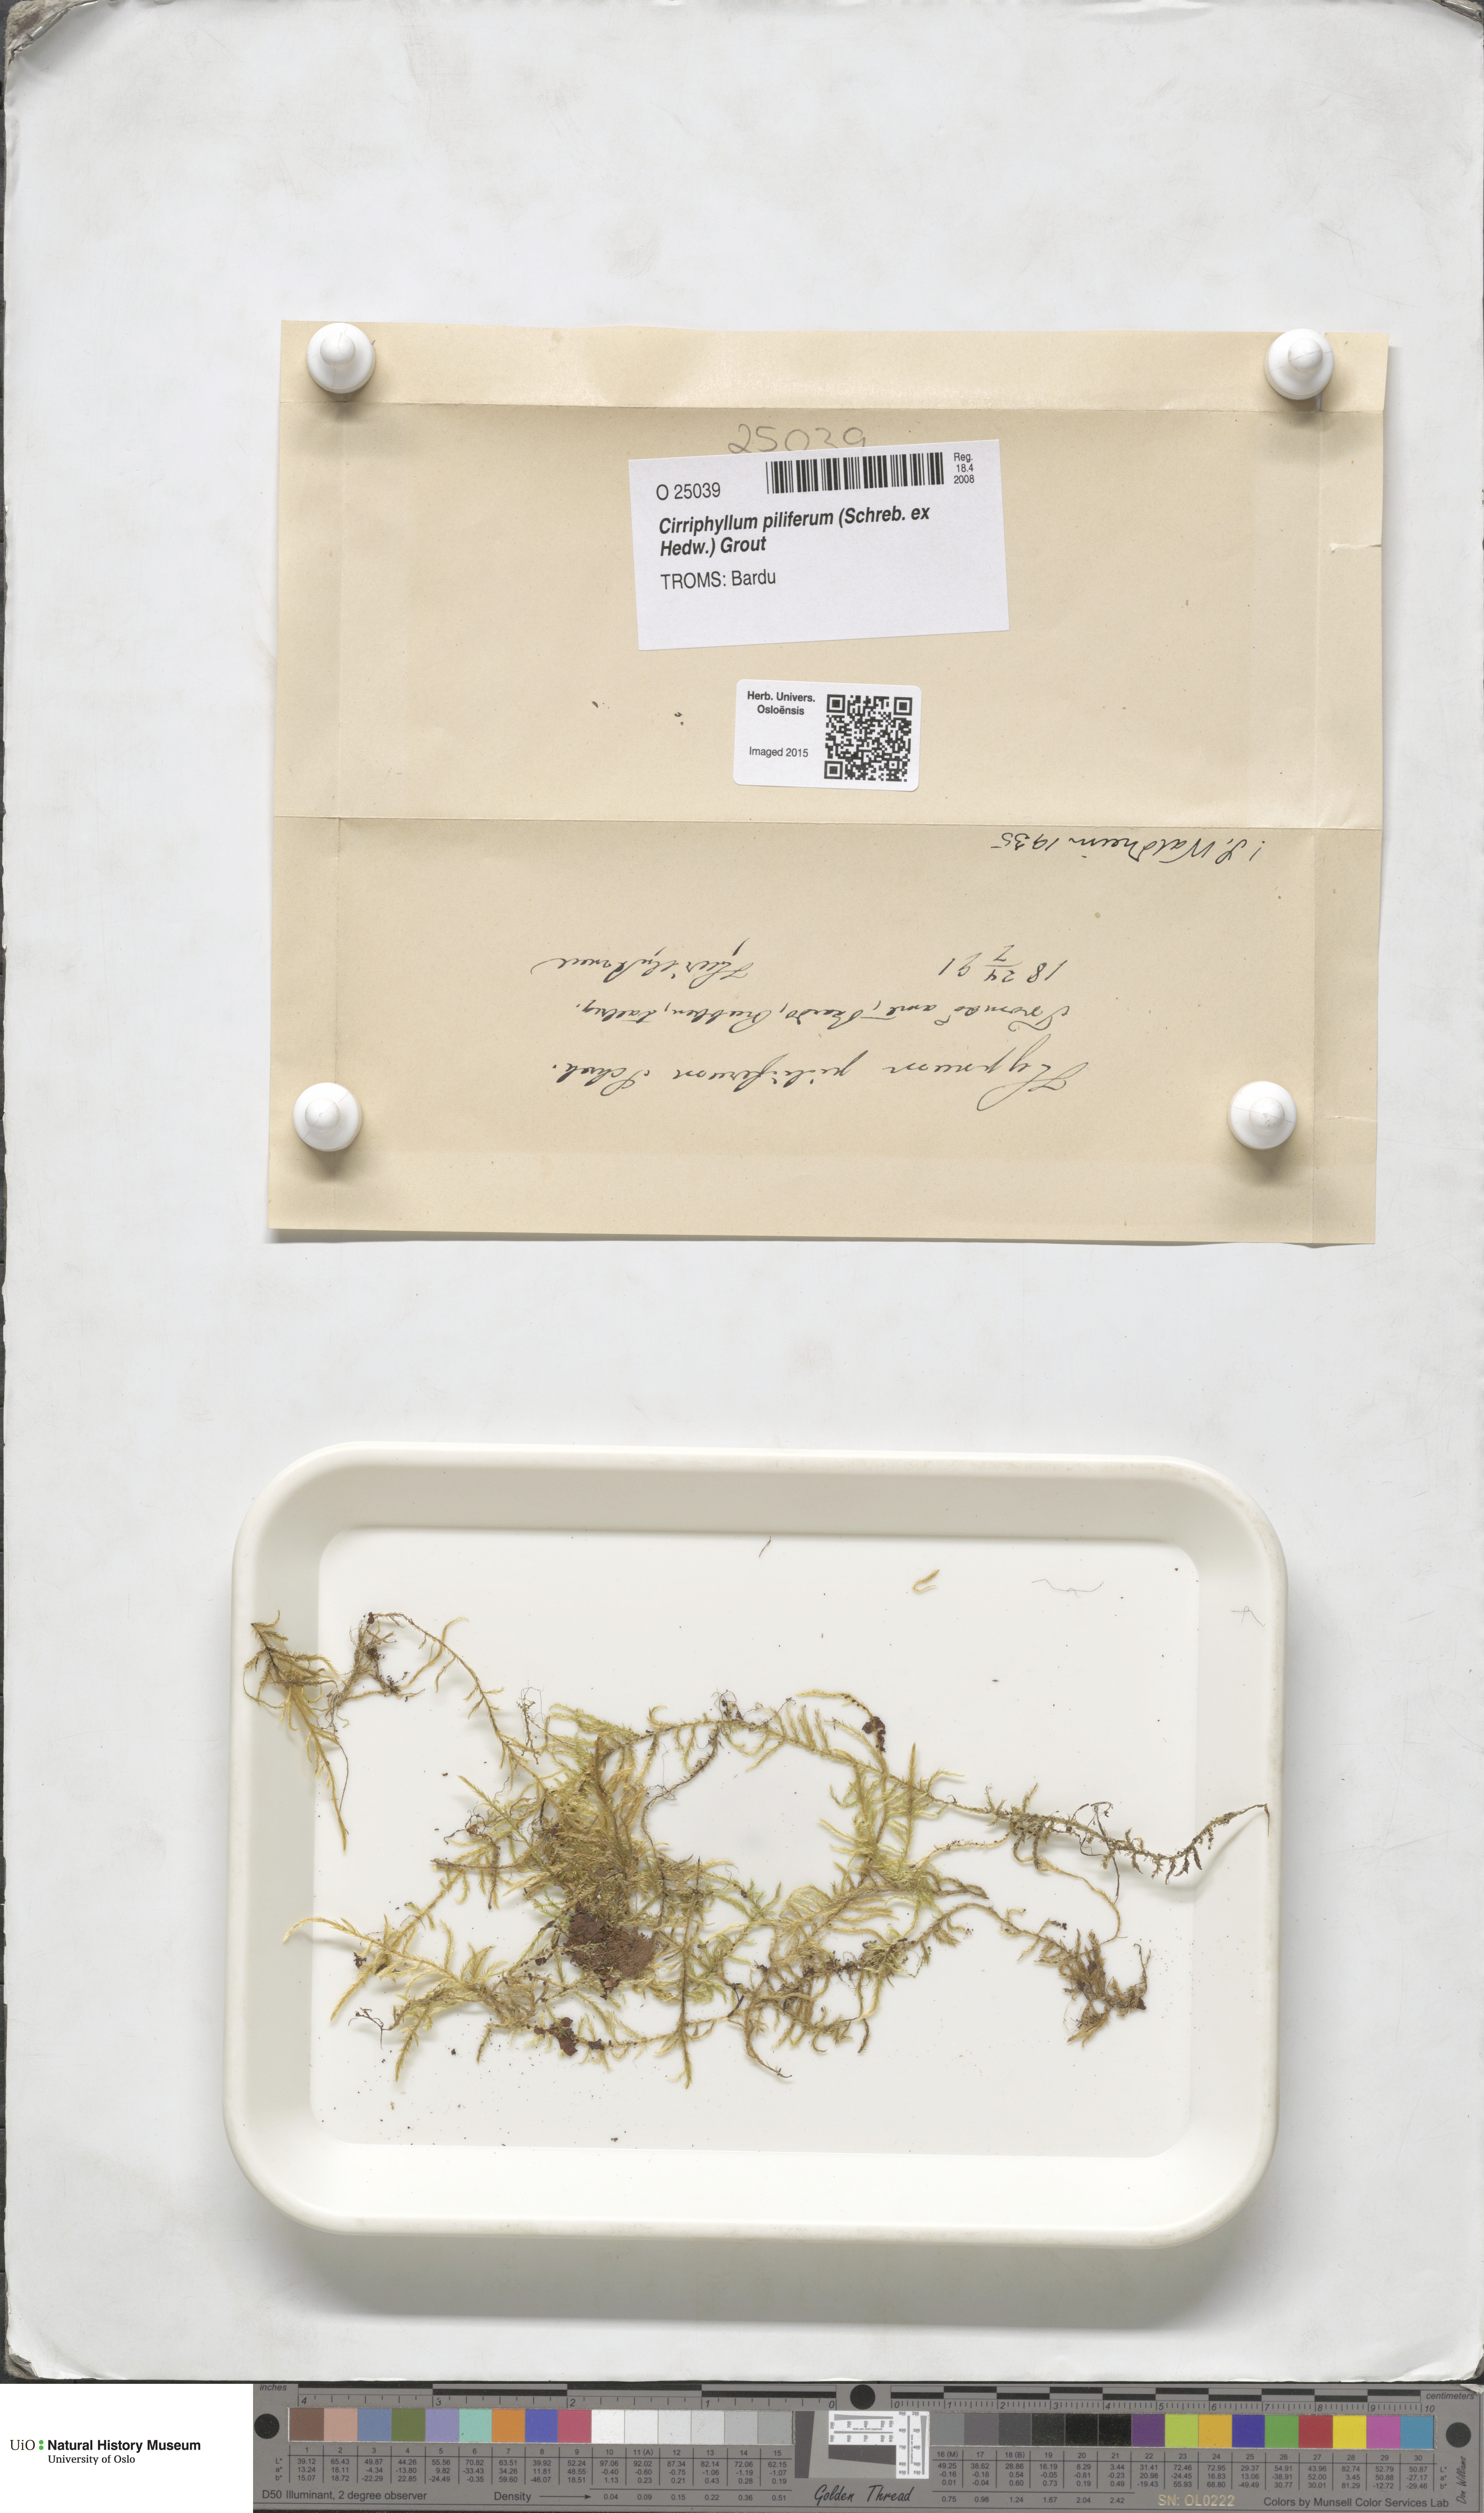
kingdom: Plantae
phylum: Bryophyta
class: Bryopsida
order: Hypnales
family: Brachytheciaceae
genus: Cirriphyllum
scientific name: Cirriphyllum piliferum
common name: Hair-pointed moss
